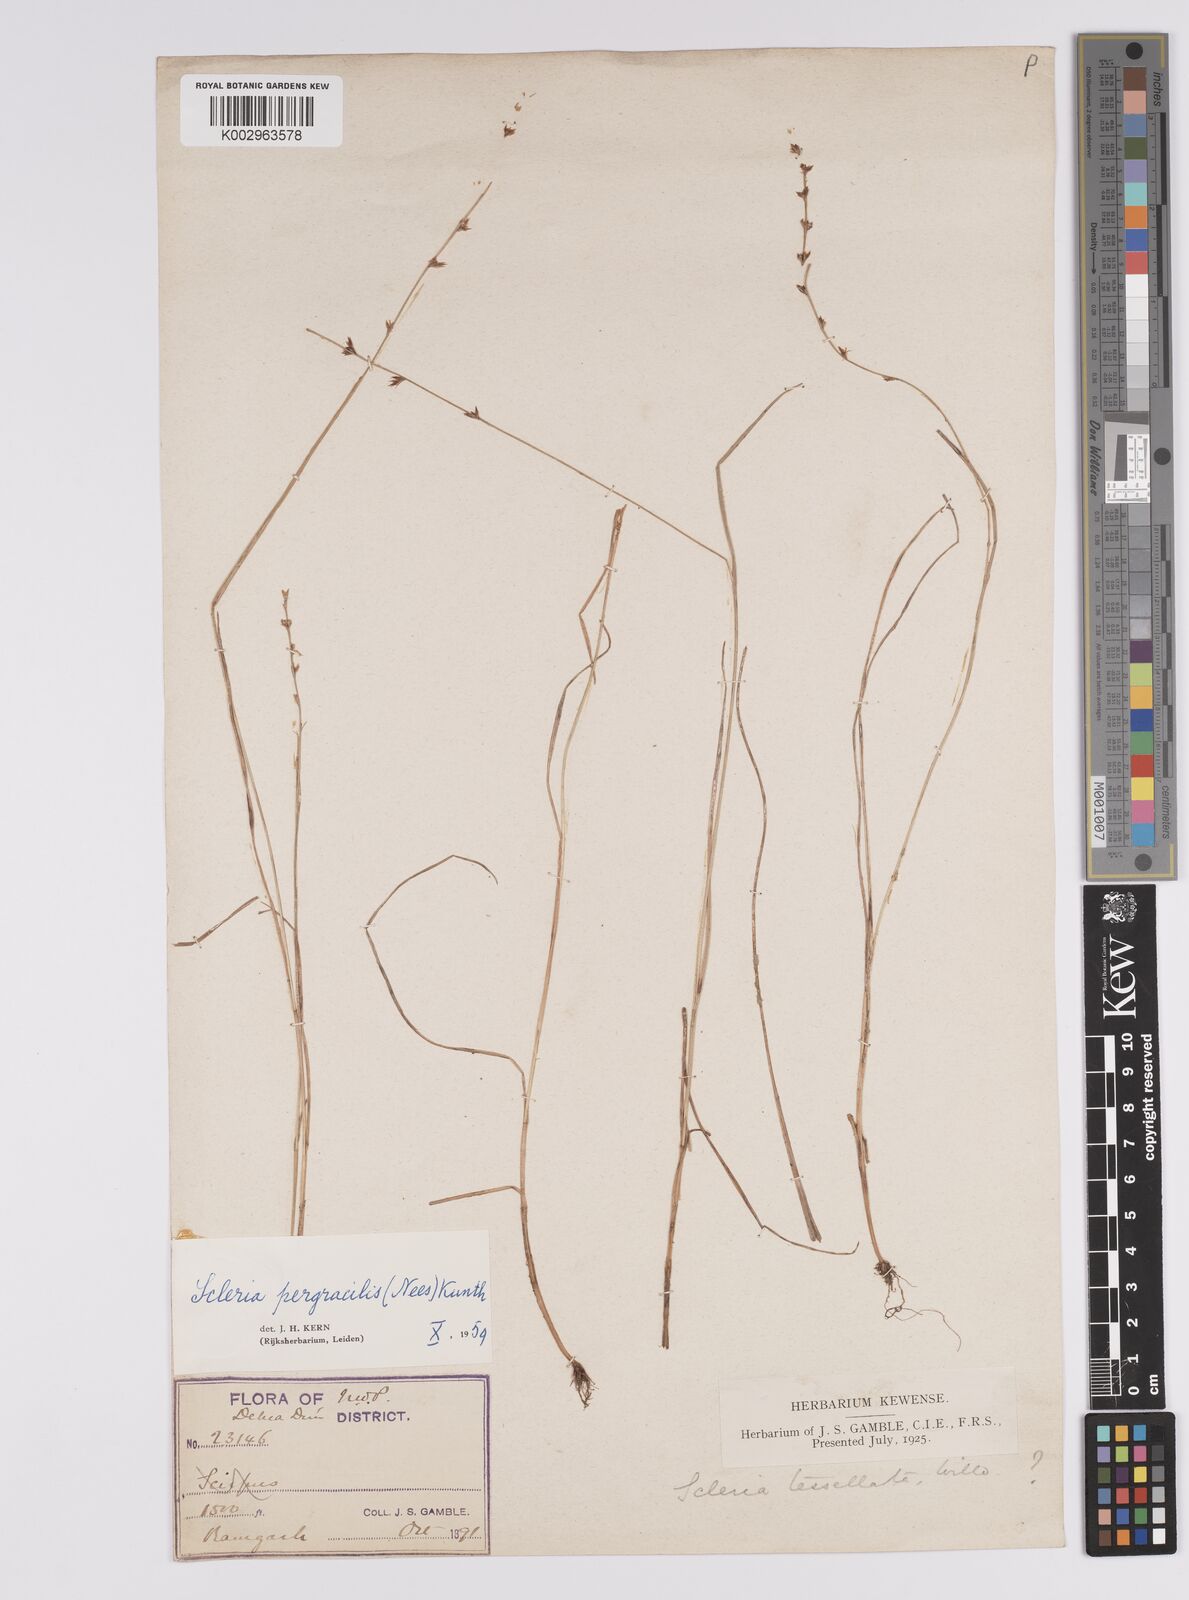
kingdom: Plantae
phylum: Tracheophyta
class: Liliopsida
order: Poales
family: Cyperaceae
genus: Scleria
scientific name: Scleria pergracilis
